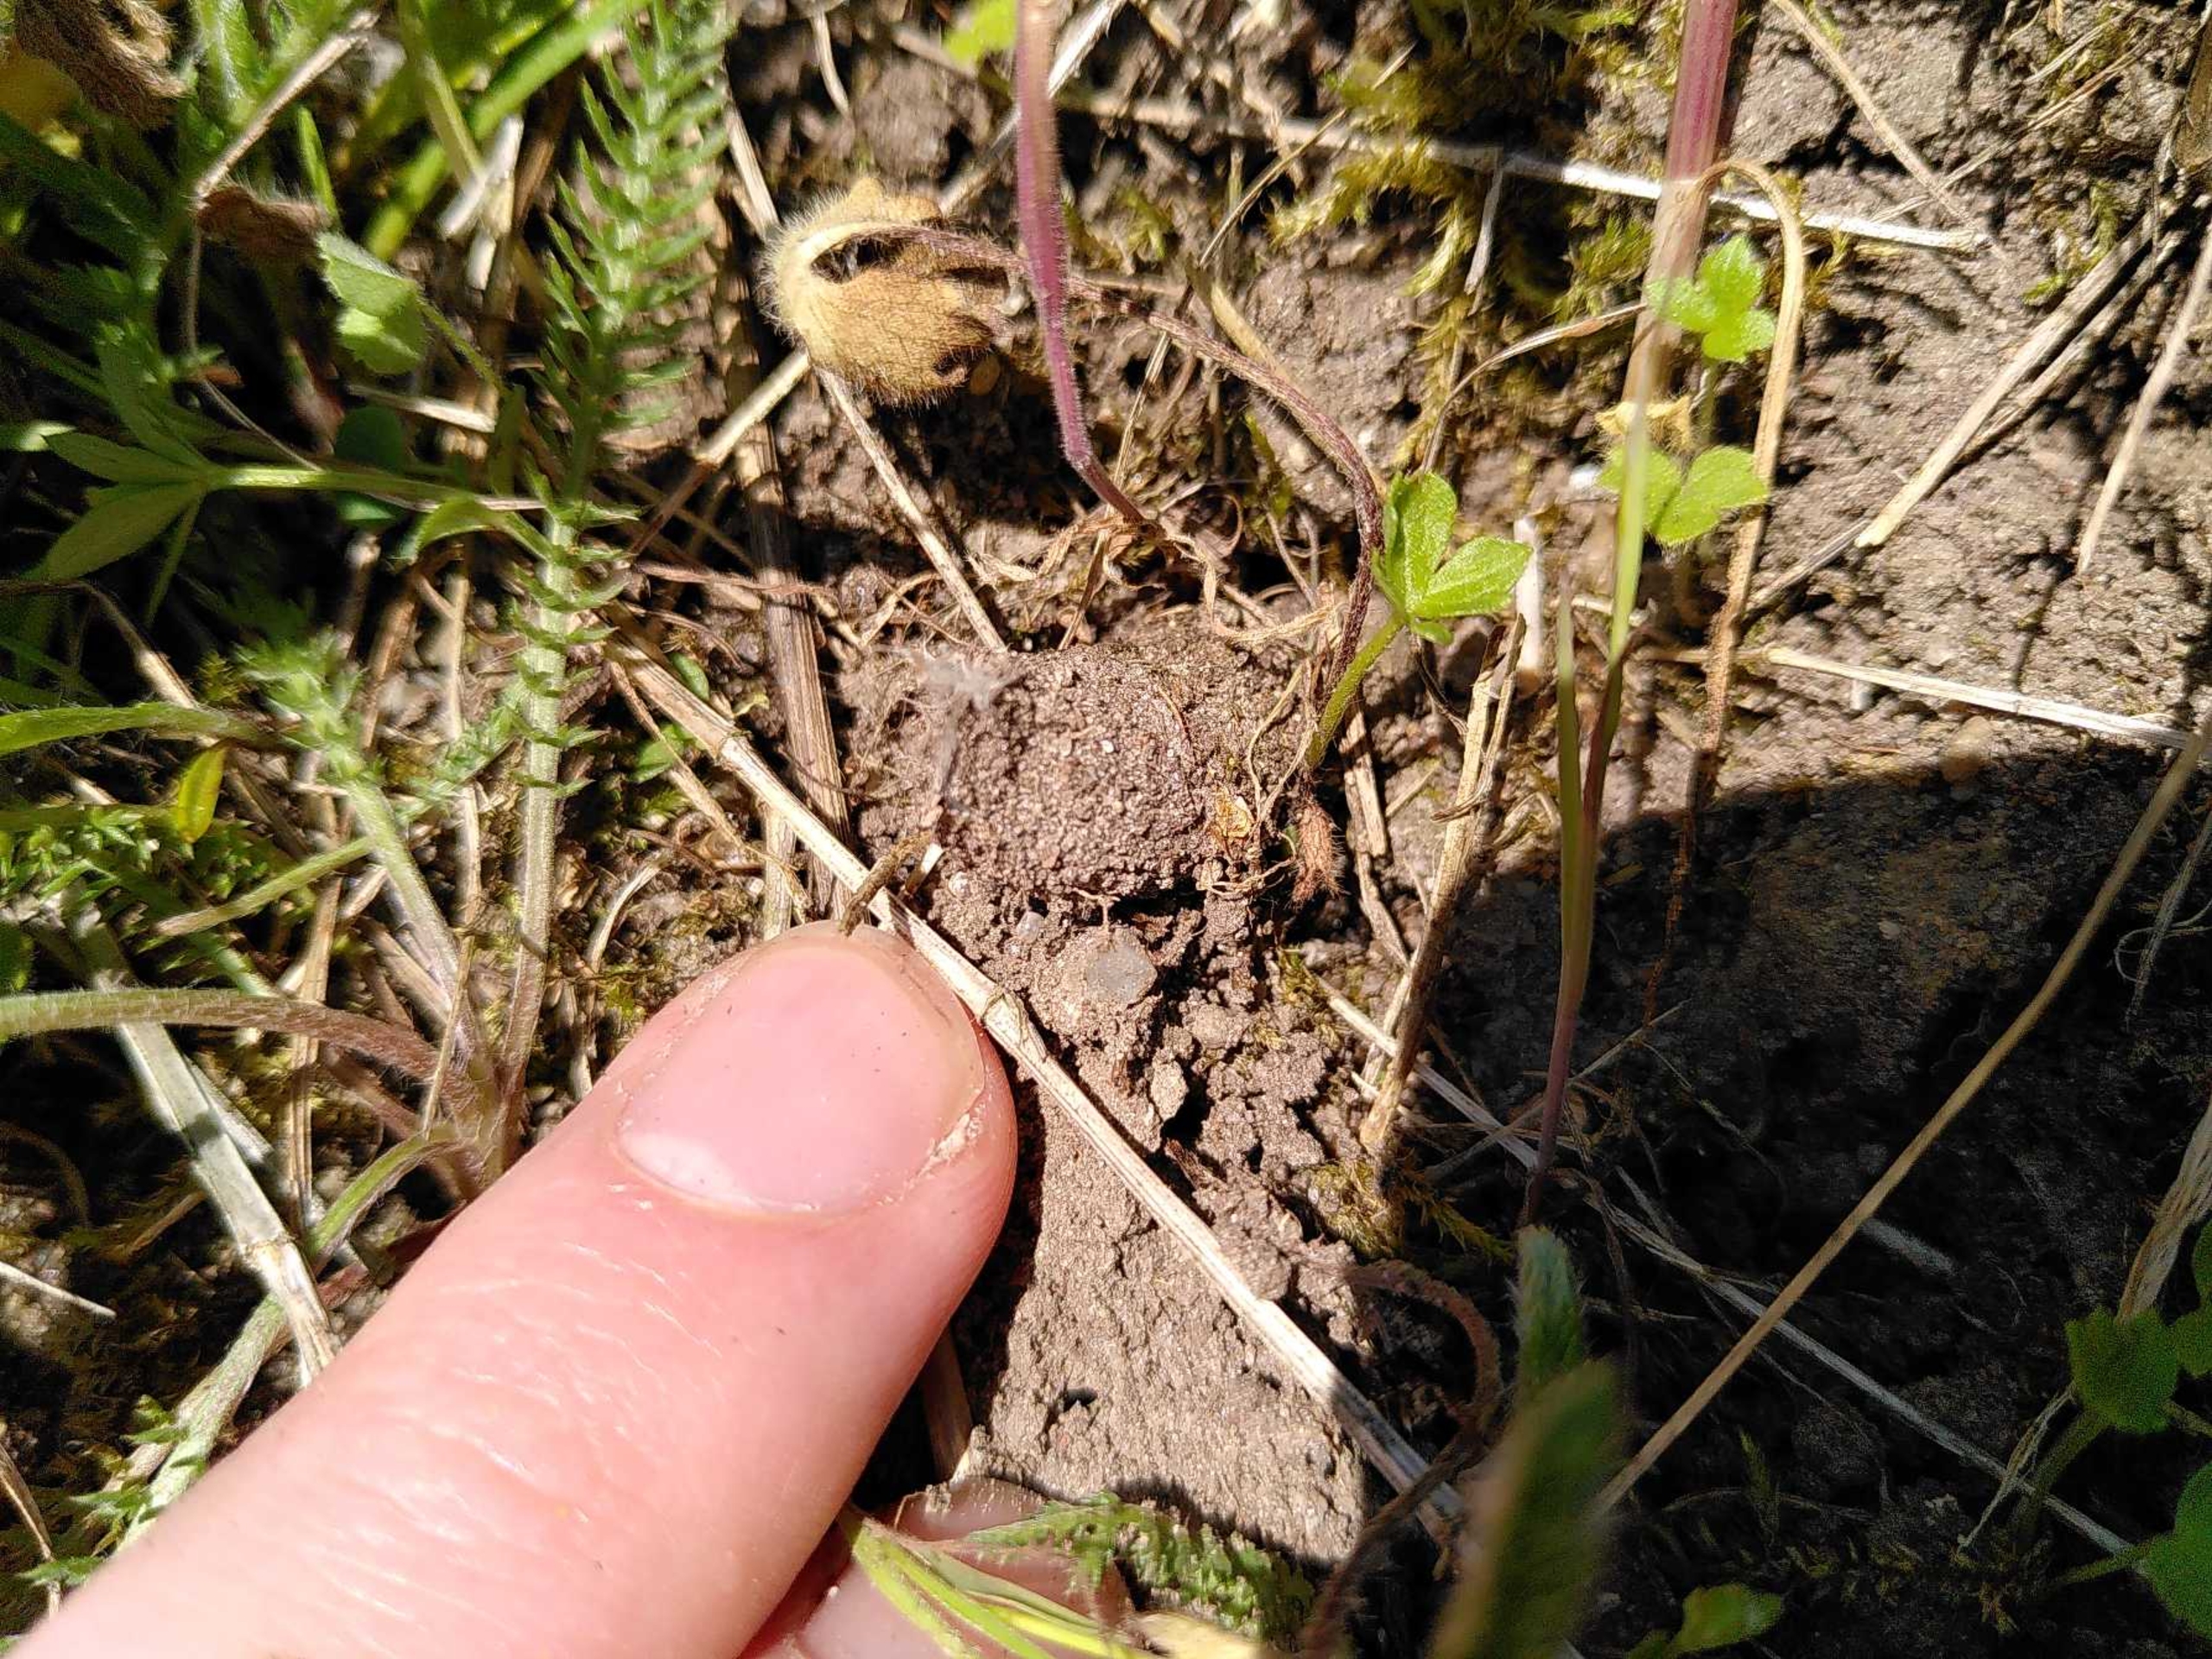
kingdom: Animalia
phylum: Arthropoda
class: Arachnida
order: Araneae
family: Atypidae
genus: Atypus
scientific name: Atypus affinis
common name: Nordlig fugleedderkop
